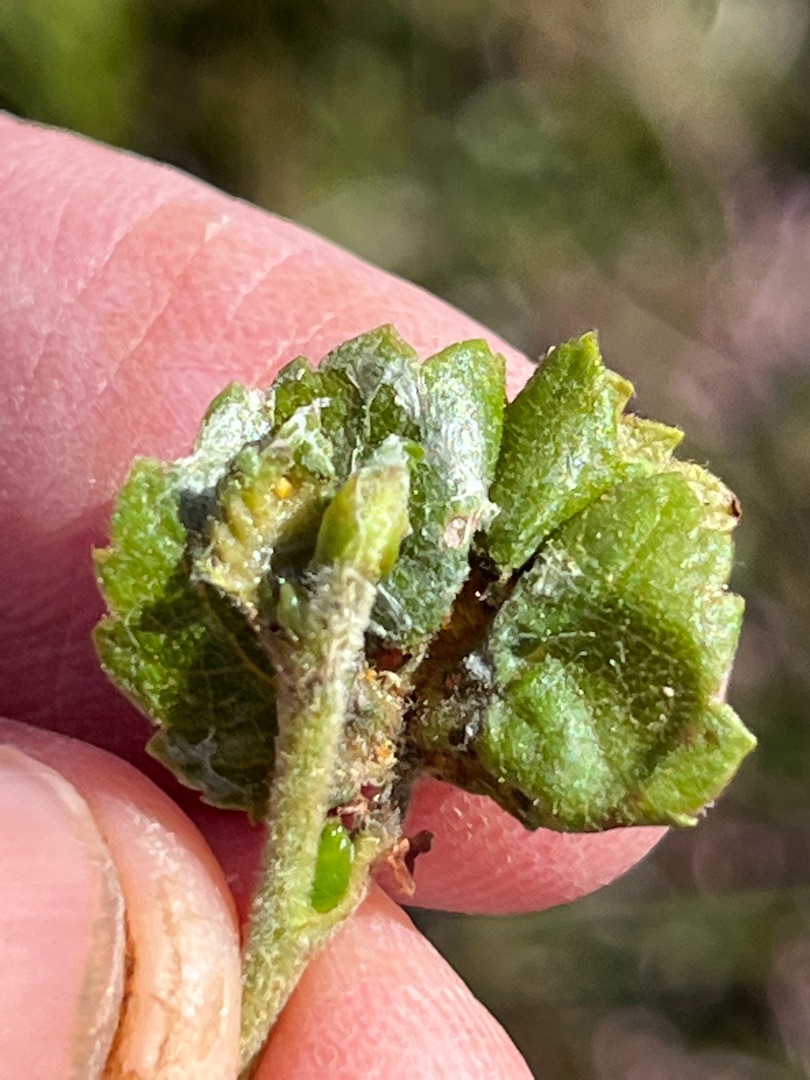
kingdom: Animalia
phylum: Arthropoda
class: Insecta
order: Diptera
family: Cecidomyiidae
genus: Resseliella
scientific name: Resseliella betulicola
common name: Birkekrusegalmyg
